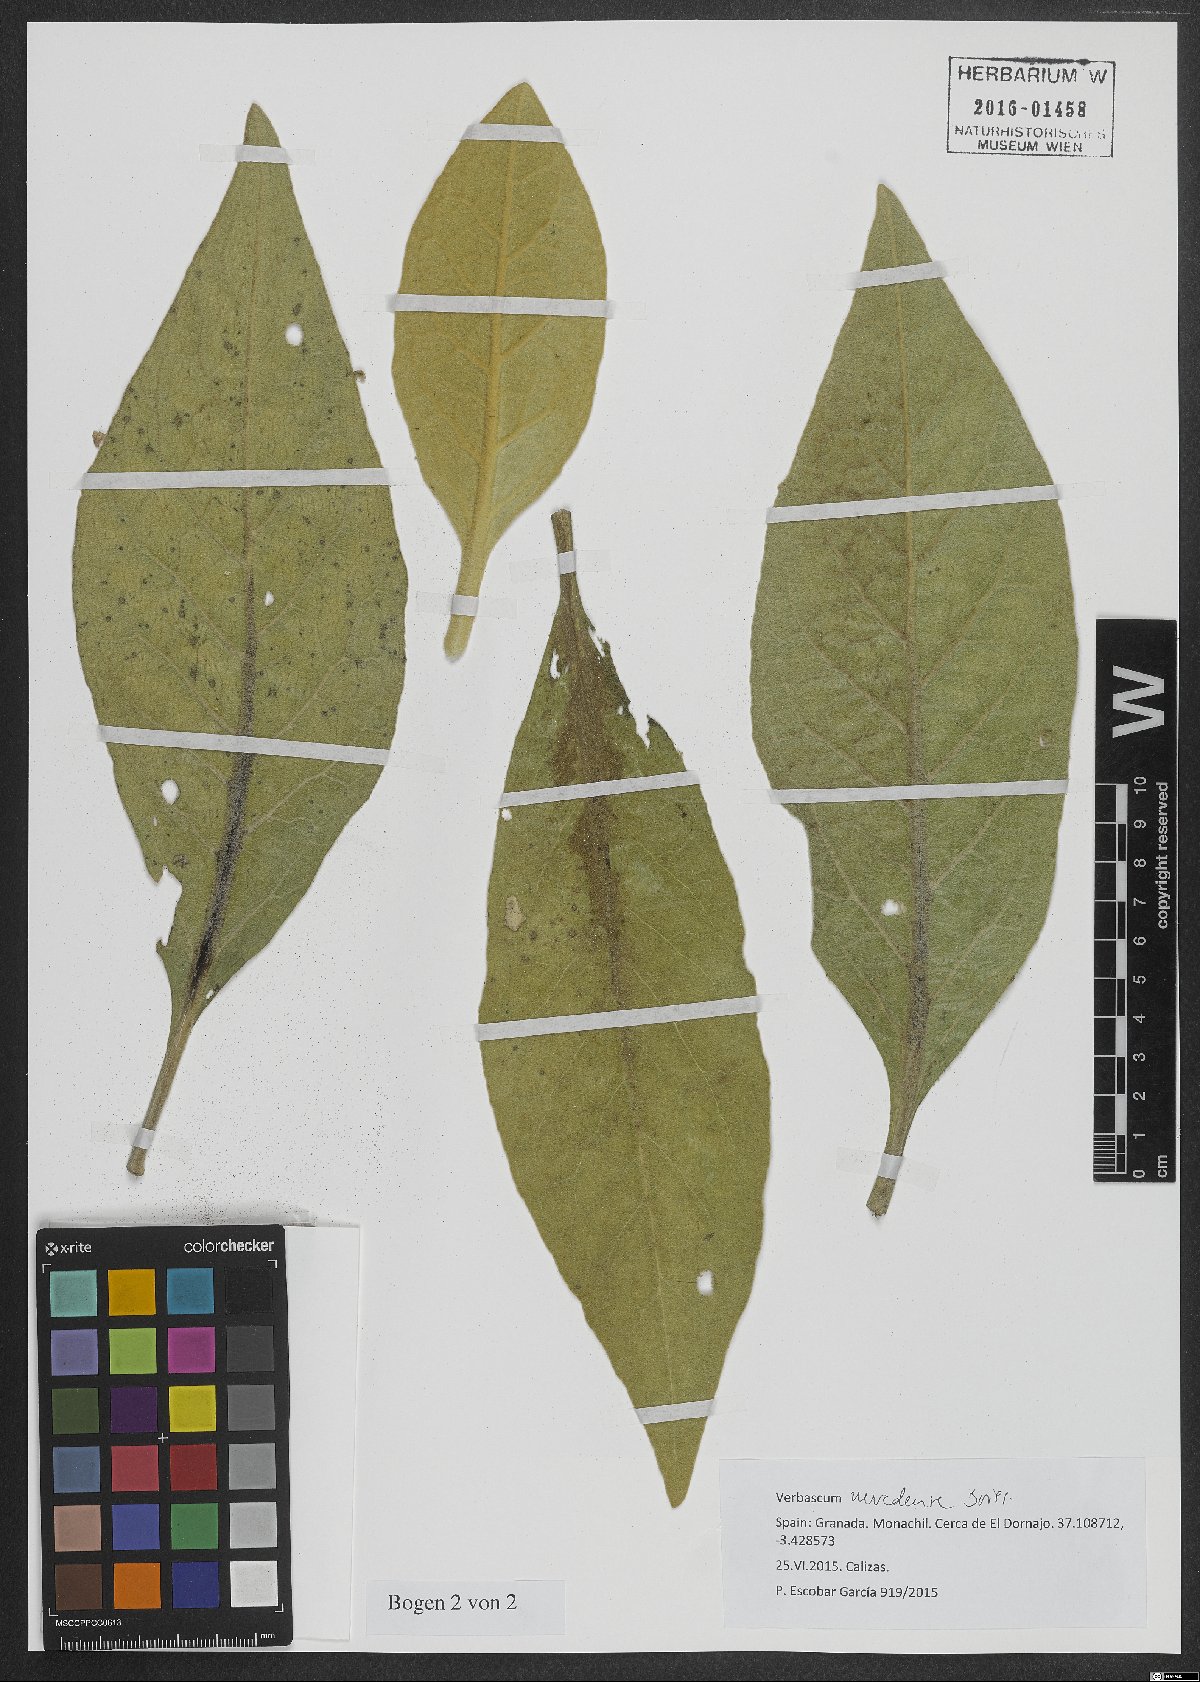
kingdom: Plantae
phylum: Tracheophyta
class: Magnoliopsida
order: Lamiales
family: Scrophulariaceae
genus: Verbascum
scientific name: Verbascum nevadense
